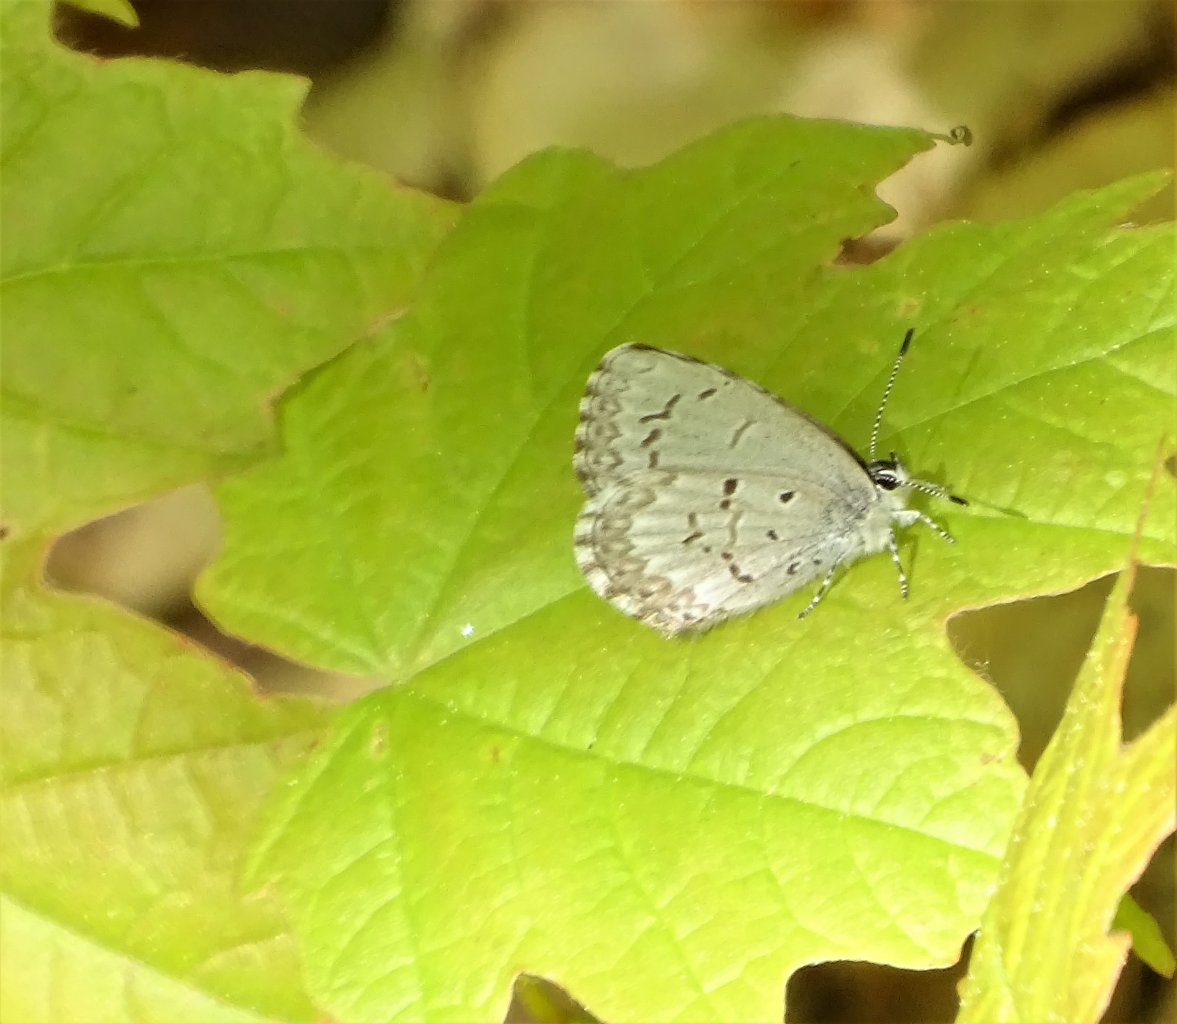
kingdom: Animalia
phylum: Arthropoda
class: Insecta
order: Lepidoptera
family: Lycaenidae
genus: Celastrina
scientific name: Celastrina lucia
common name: Northern Spring Azure
